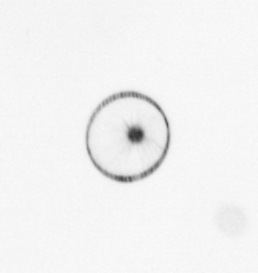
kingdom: Chromista
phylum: Myzozoa
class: Dinophyceae
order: Noctilucales
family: Noctilucaceae
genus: Noctiluca
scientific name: Noctiluca scintillans
